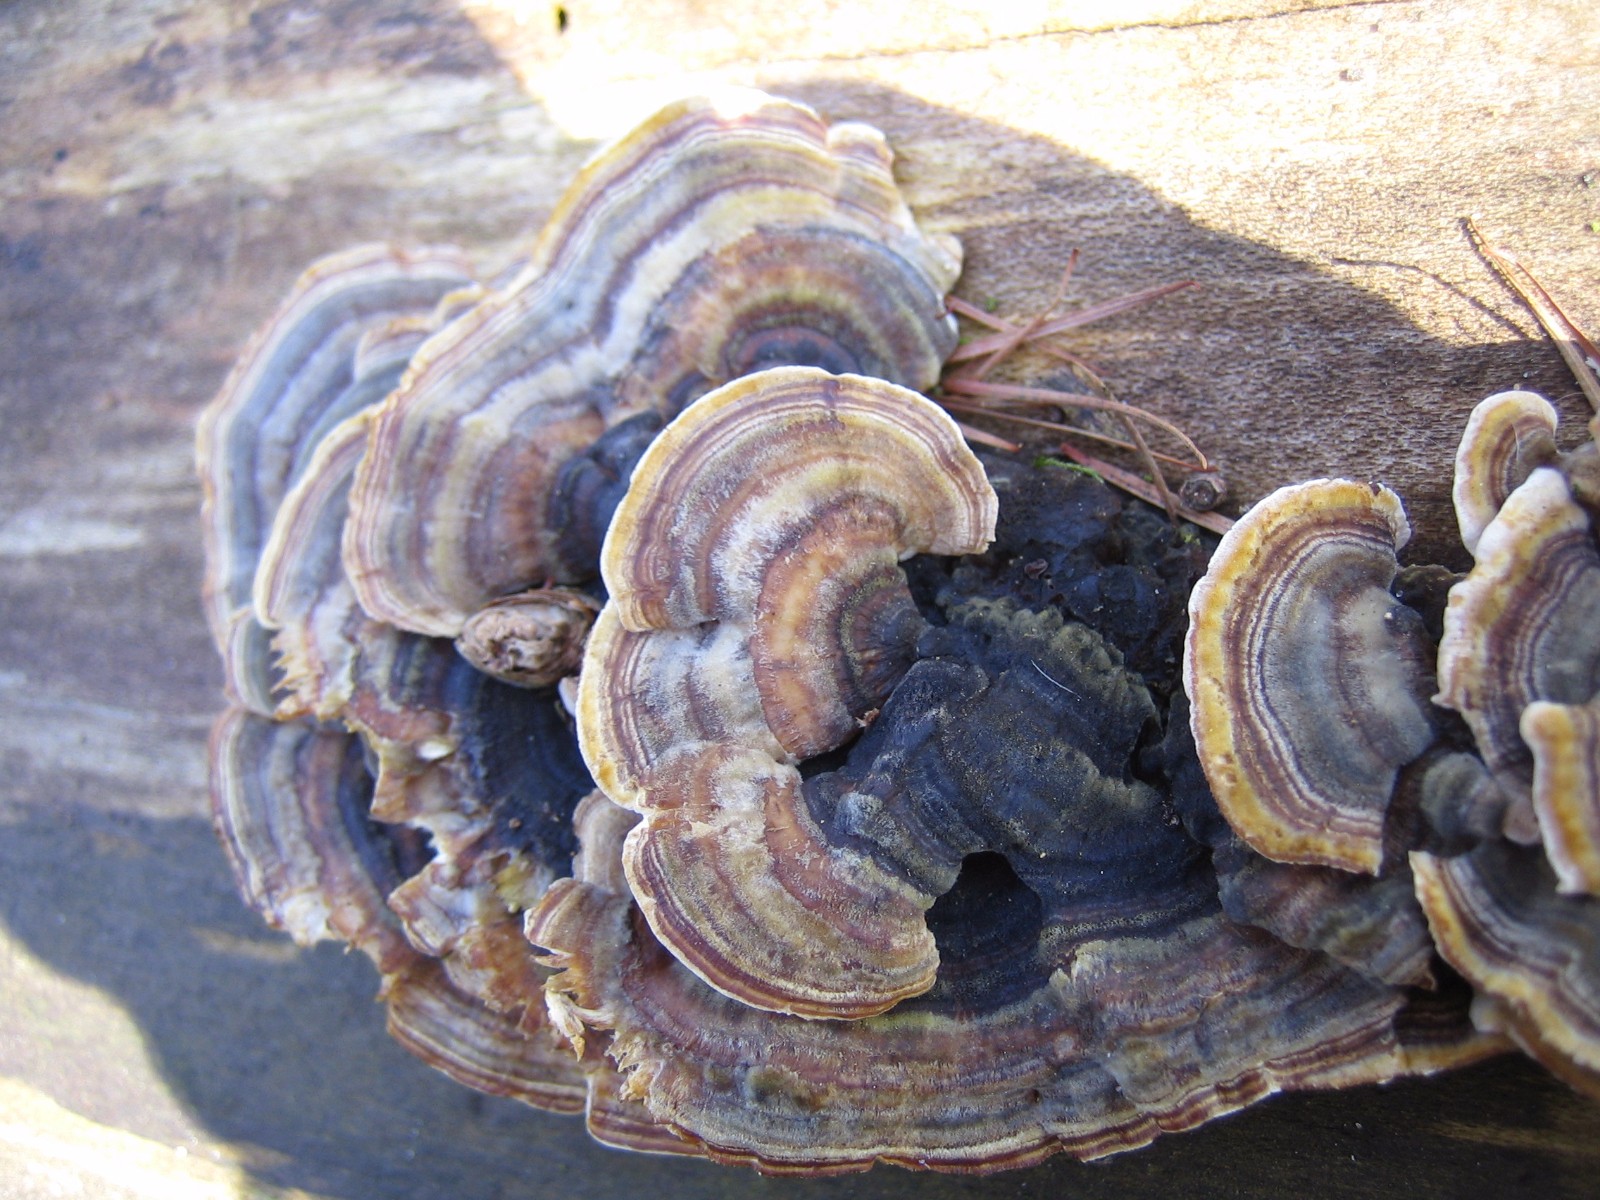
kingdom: Fungi
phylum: Basidiomycota
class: Agaricomycetes
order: Polyporales
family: Polyporaceae
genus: Trametes
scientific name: Trametes versicolor
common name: broget læderporesvamp
